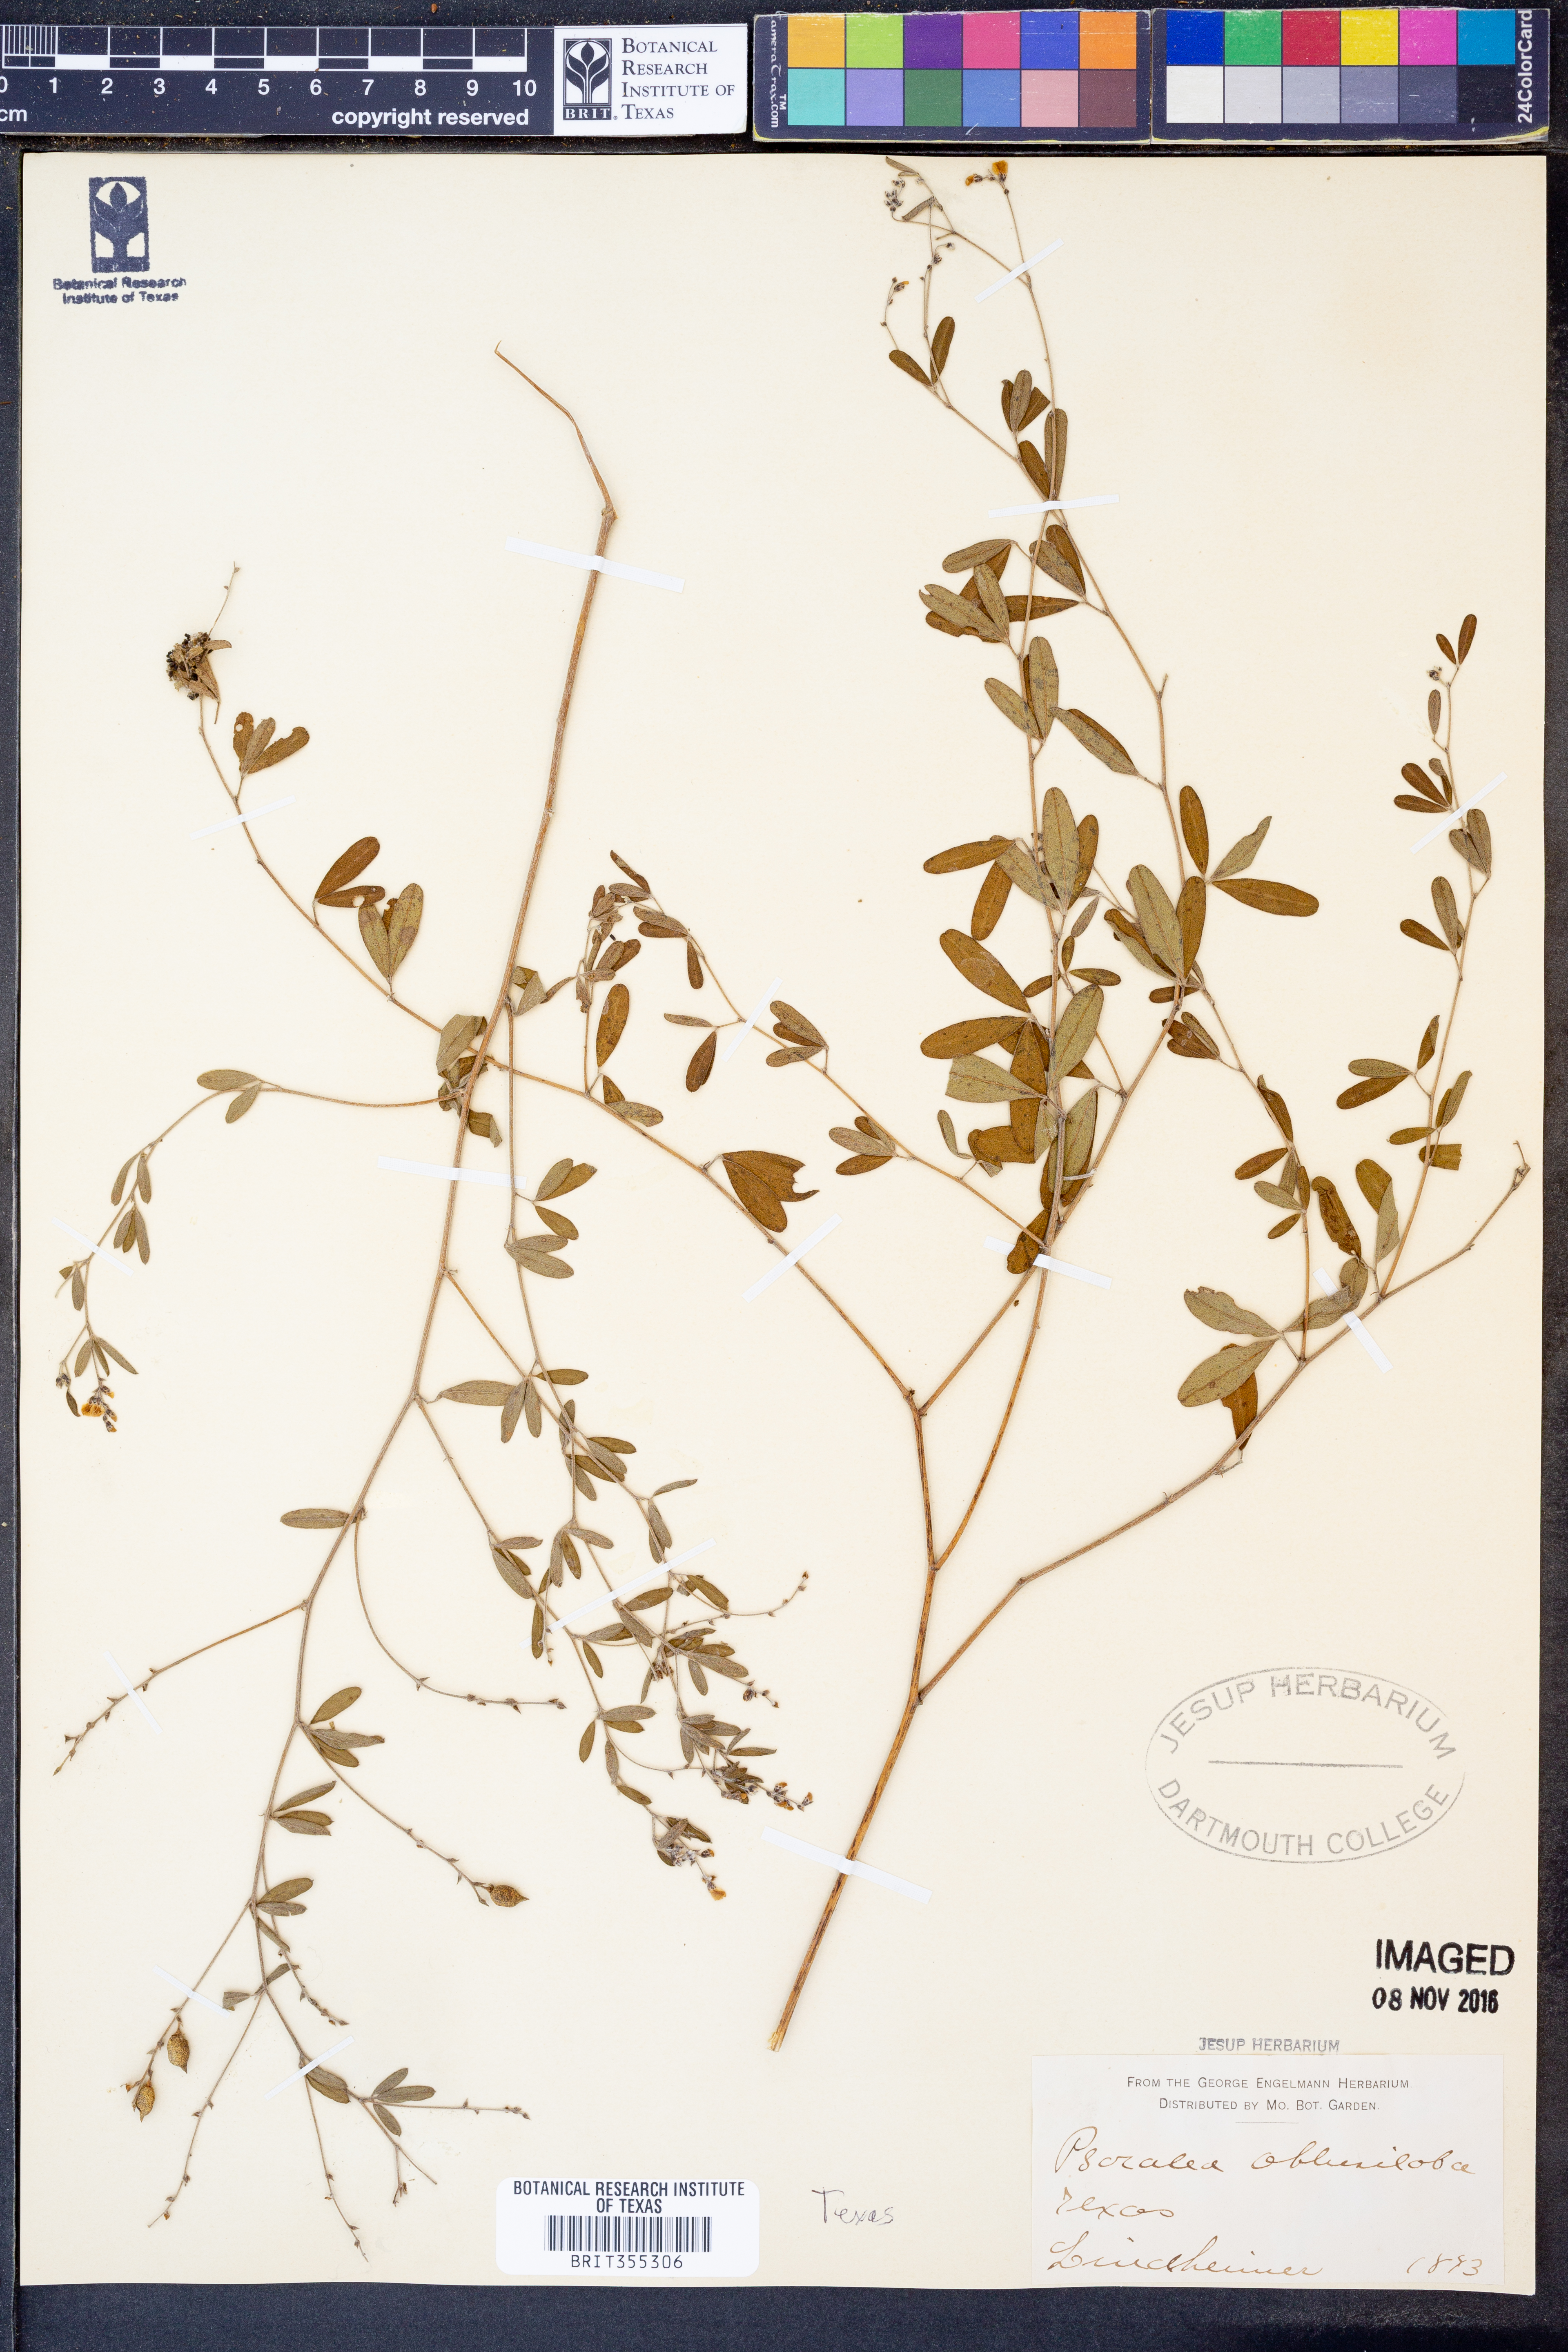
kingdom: Plantae
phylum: Tracheophyta
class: Magnoliopsida
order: Fabales
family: Fabaceae
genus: Pediomelum
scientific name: Pediomelum tenuiflorum
